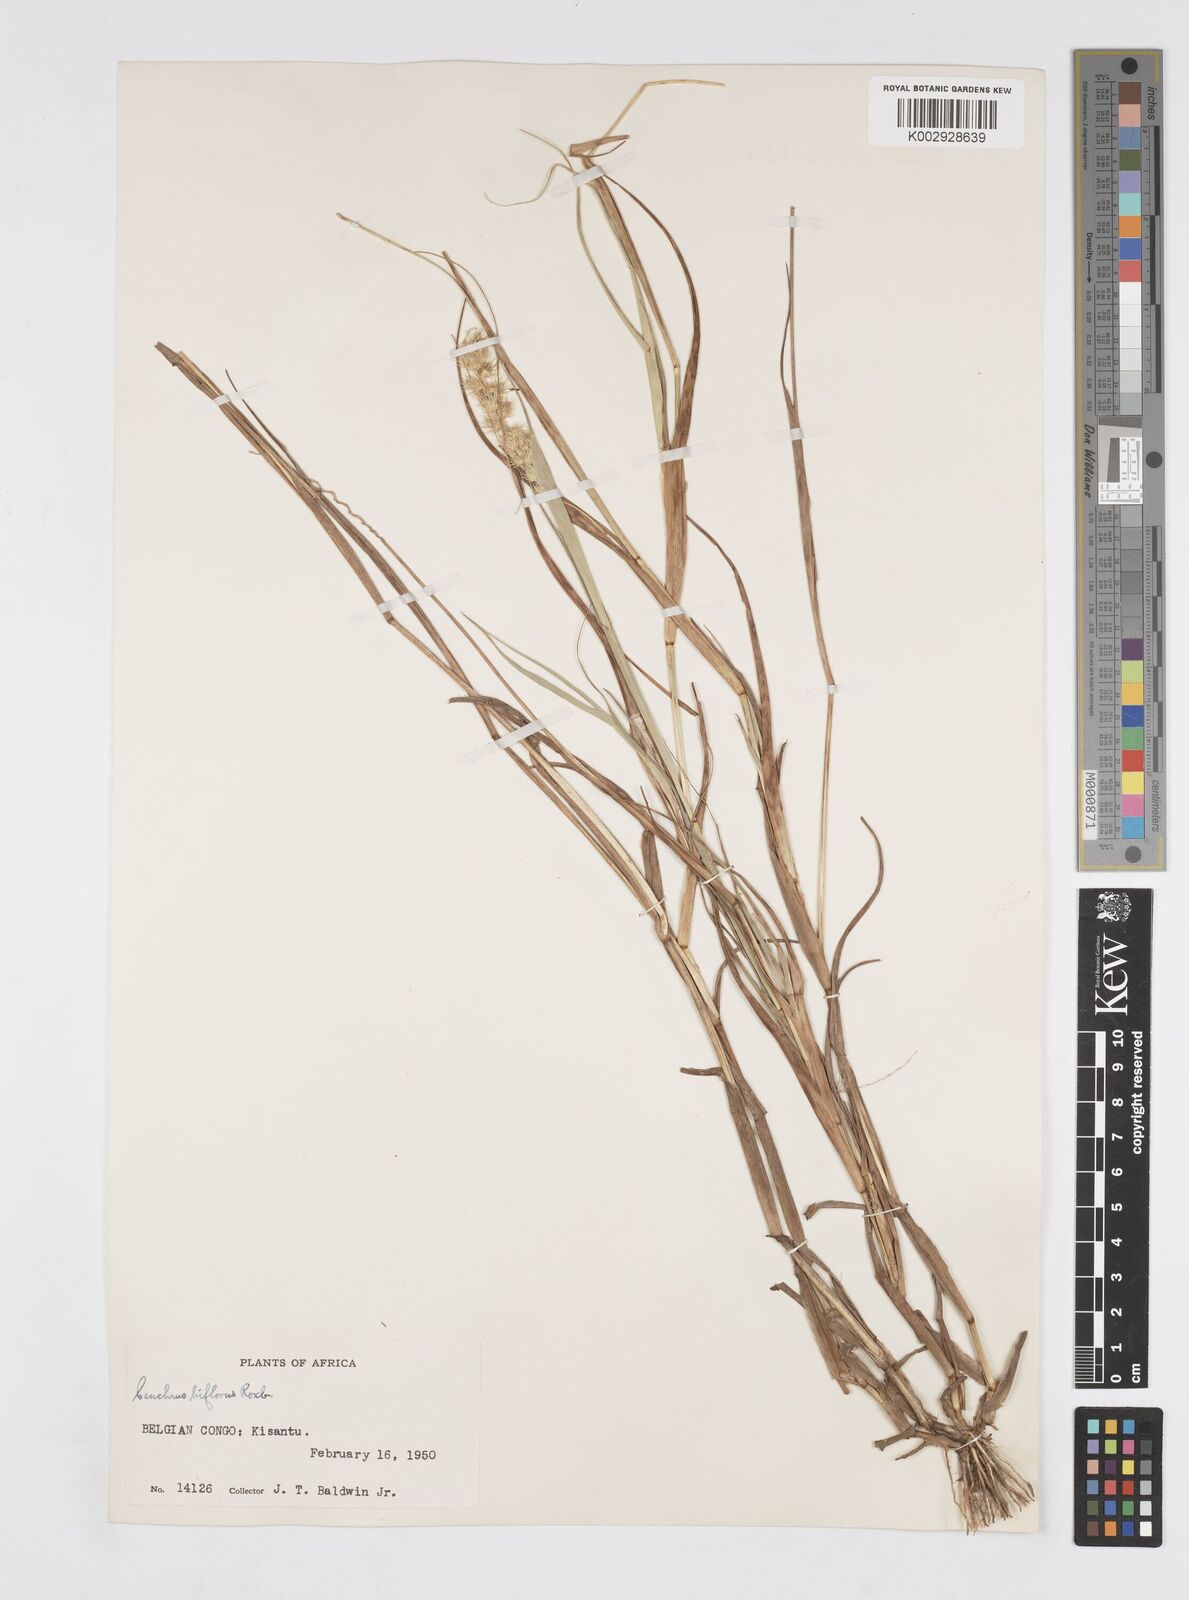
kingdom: Plantae
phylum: Tracheophyta
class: Liliopsida
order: Poales
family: Poaceae
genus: Cenchrus
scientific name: Cenchrus biflorus
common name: Indian sandbur
